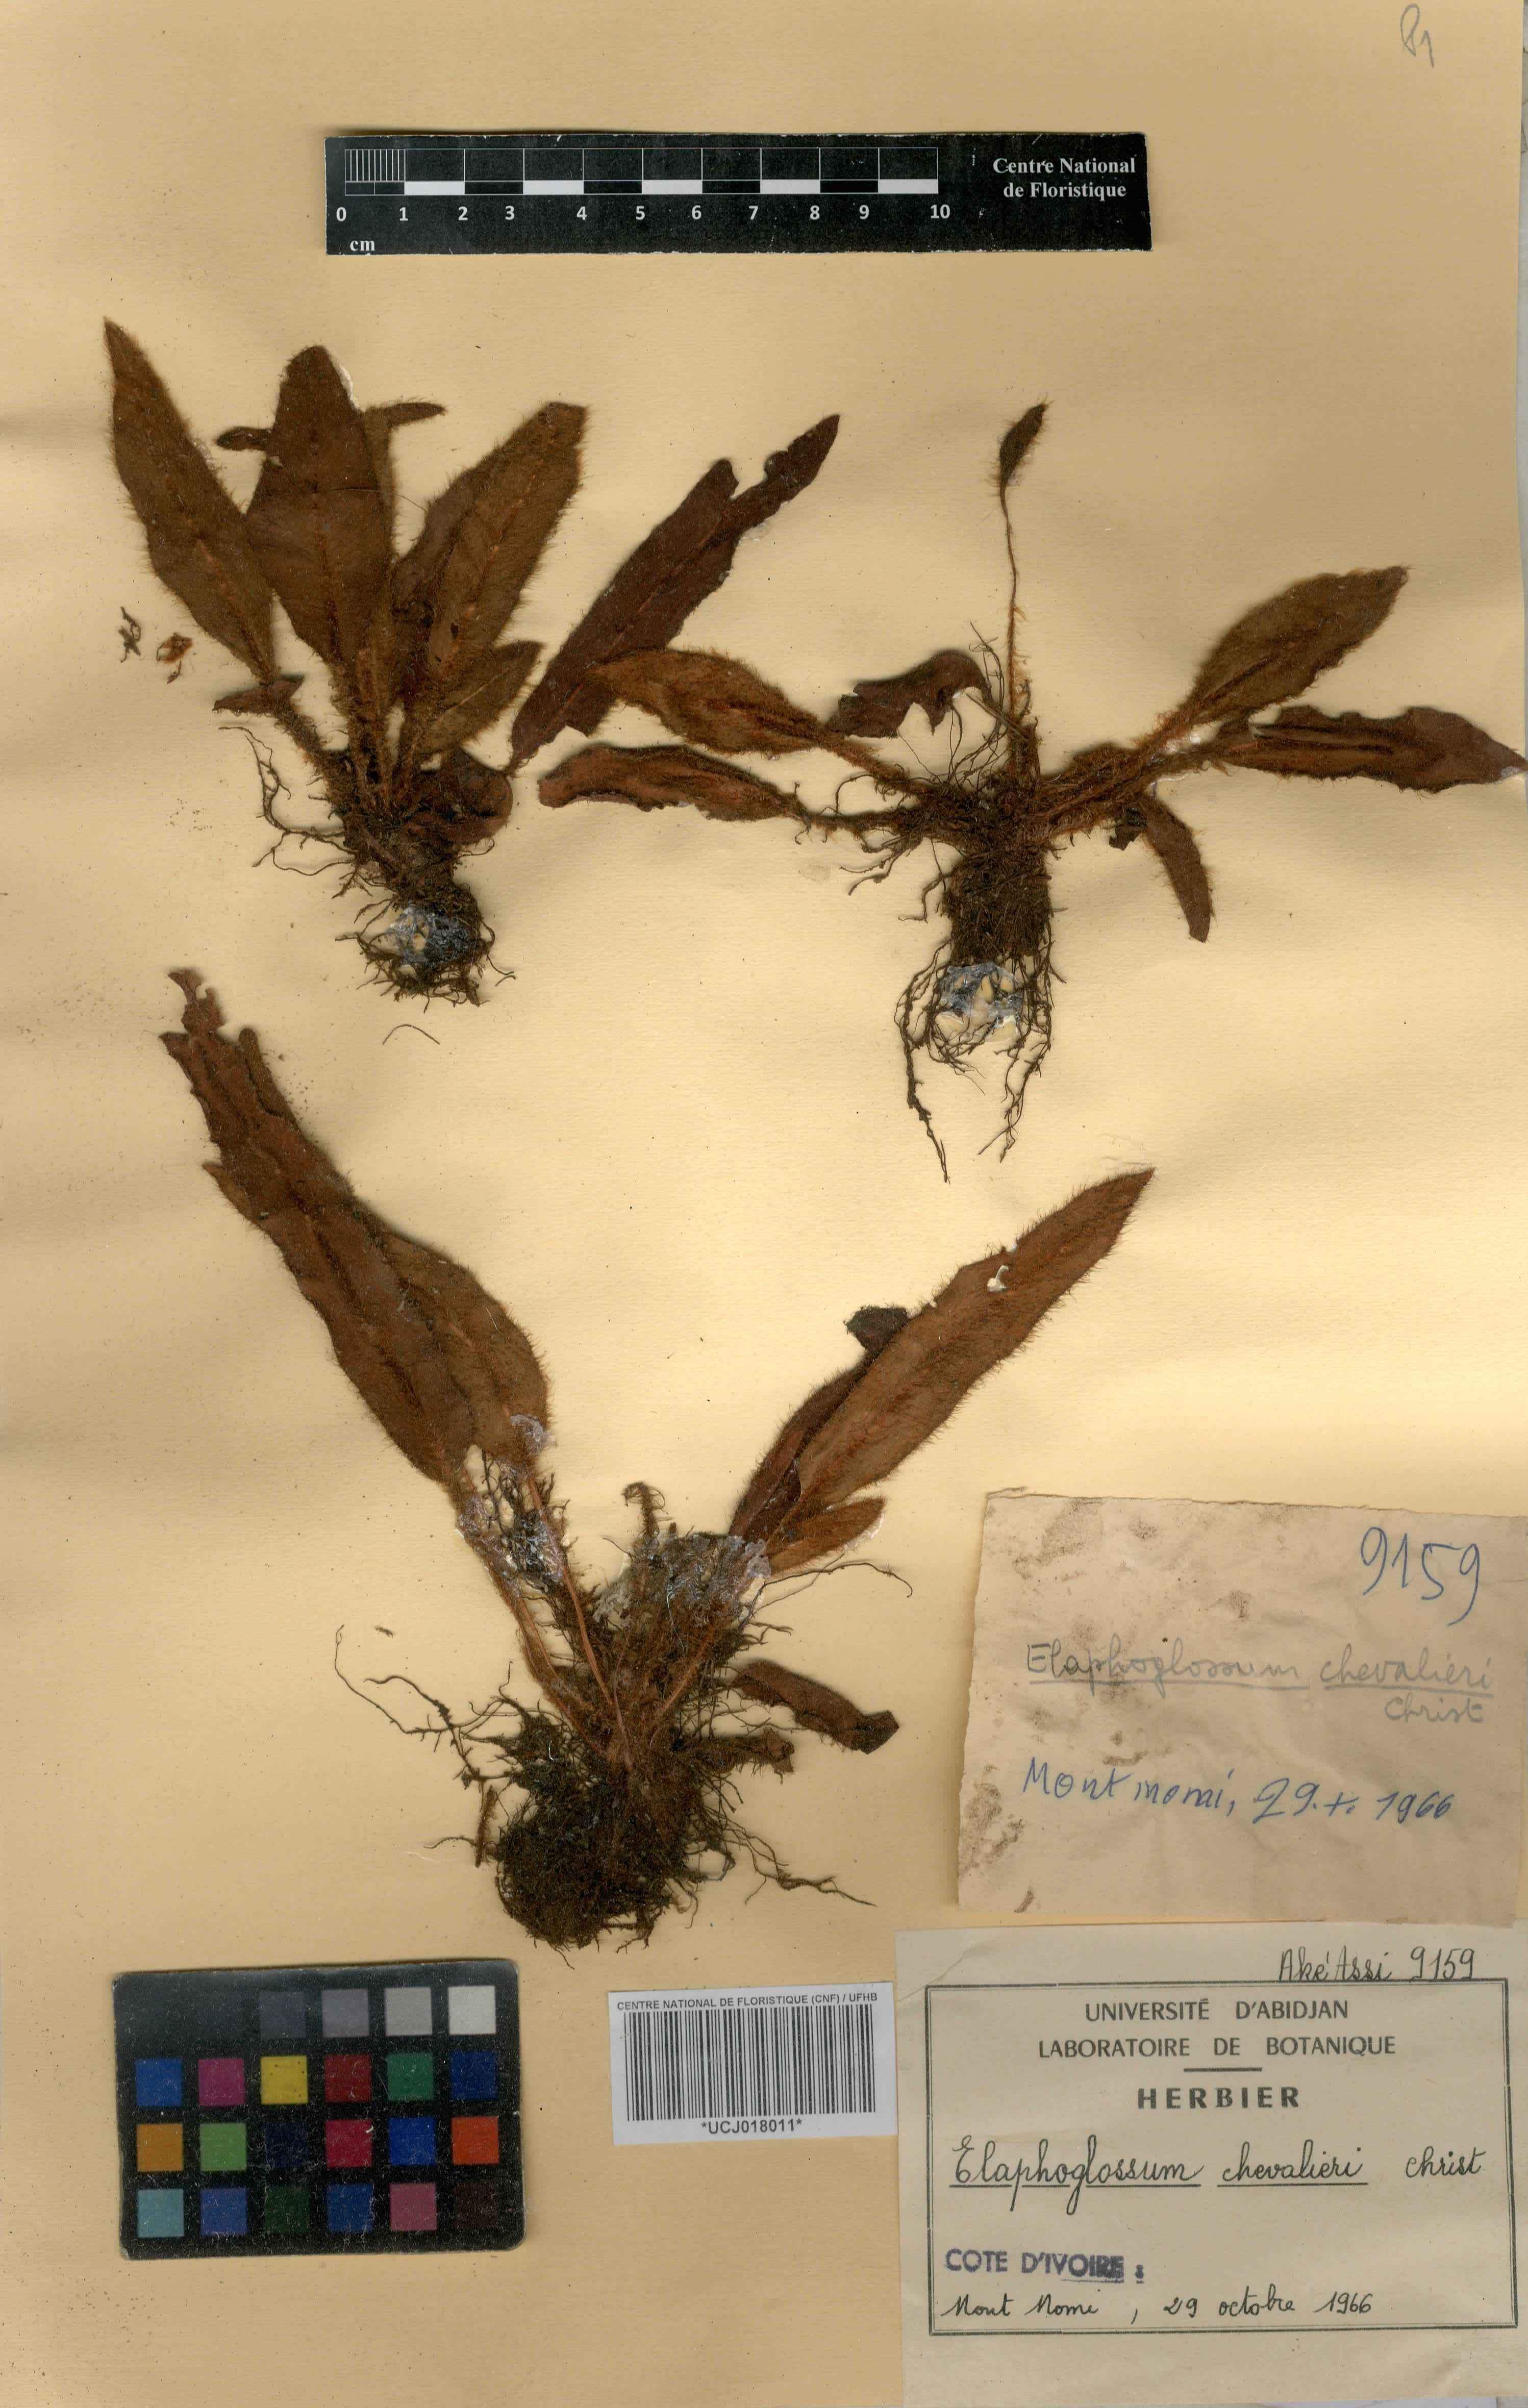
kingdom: Plantae
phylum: Tracheophyta
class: Polypodiopsida
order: Polypodiales
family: Dryopteridaceae
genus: Elaphoglossum
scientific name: Elaphoglossum chevalieri
